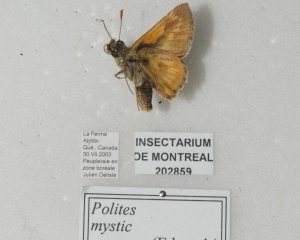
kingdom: Animalia
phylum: Arthropoda
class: Insecta
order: Lepidoptera
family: Hesperiidae
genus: Polites
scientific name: Polites
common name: Long Dash Skipper
